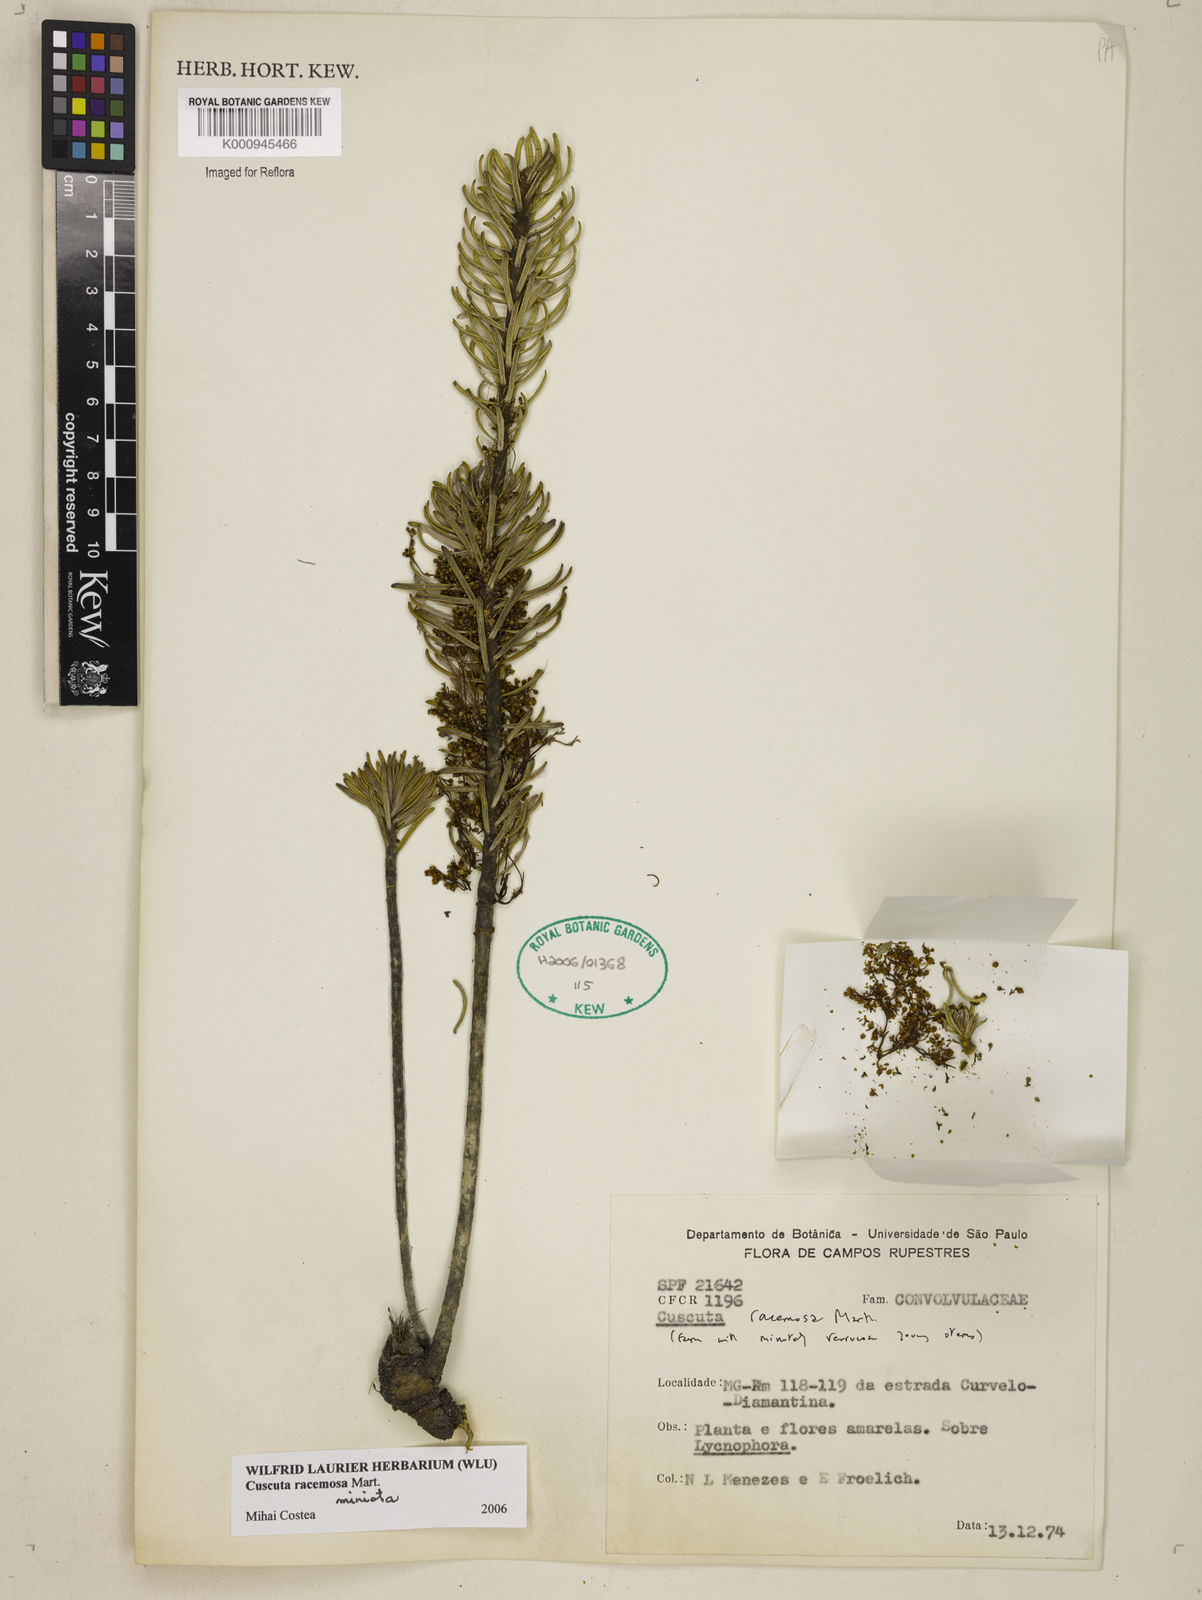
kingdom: Plantae
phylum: Tracheophyta
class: Magnoliopsida
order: Solanales
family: Convolvulaceae
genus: Cuscuta
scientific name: Cuscuta racemosa
